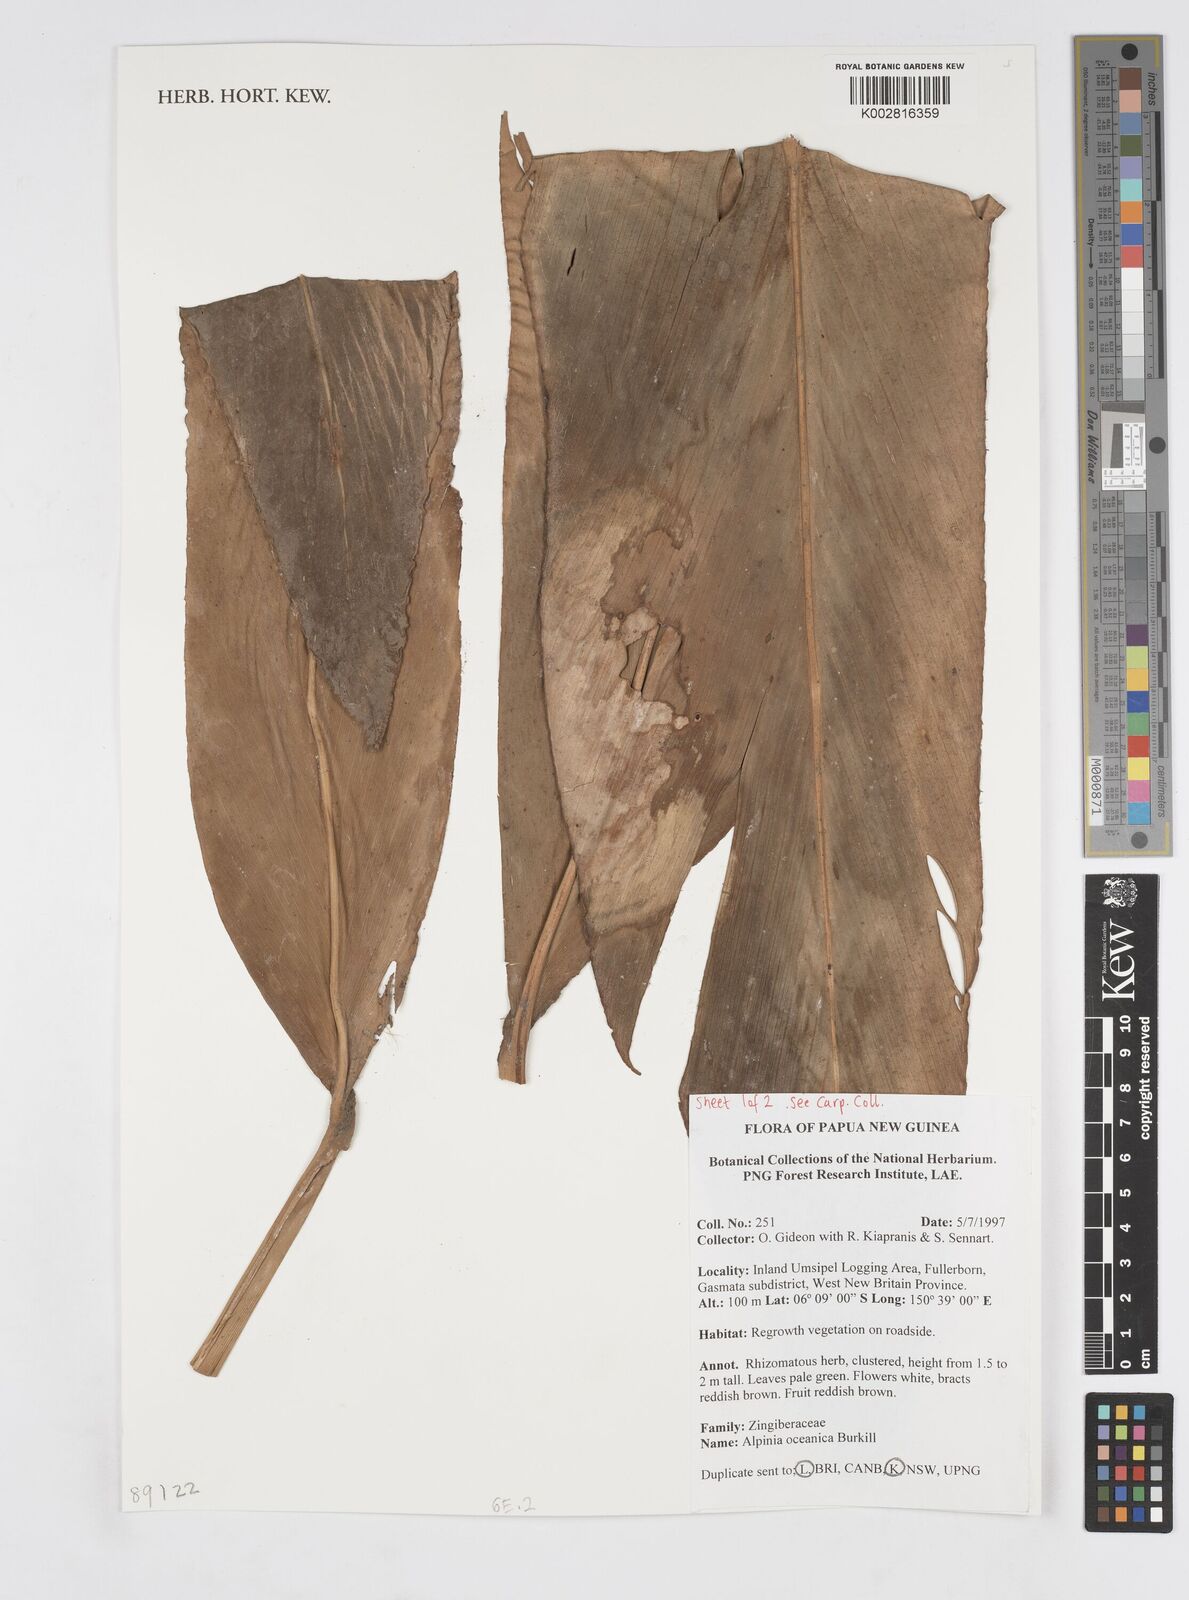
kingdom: Plantae
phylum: Tracheophyta
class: Liliopsida
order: Zingiberales
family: Zingiberaceae
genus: Alpinia
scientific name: Alpinia oceanica
